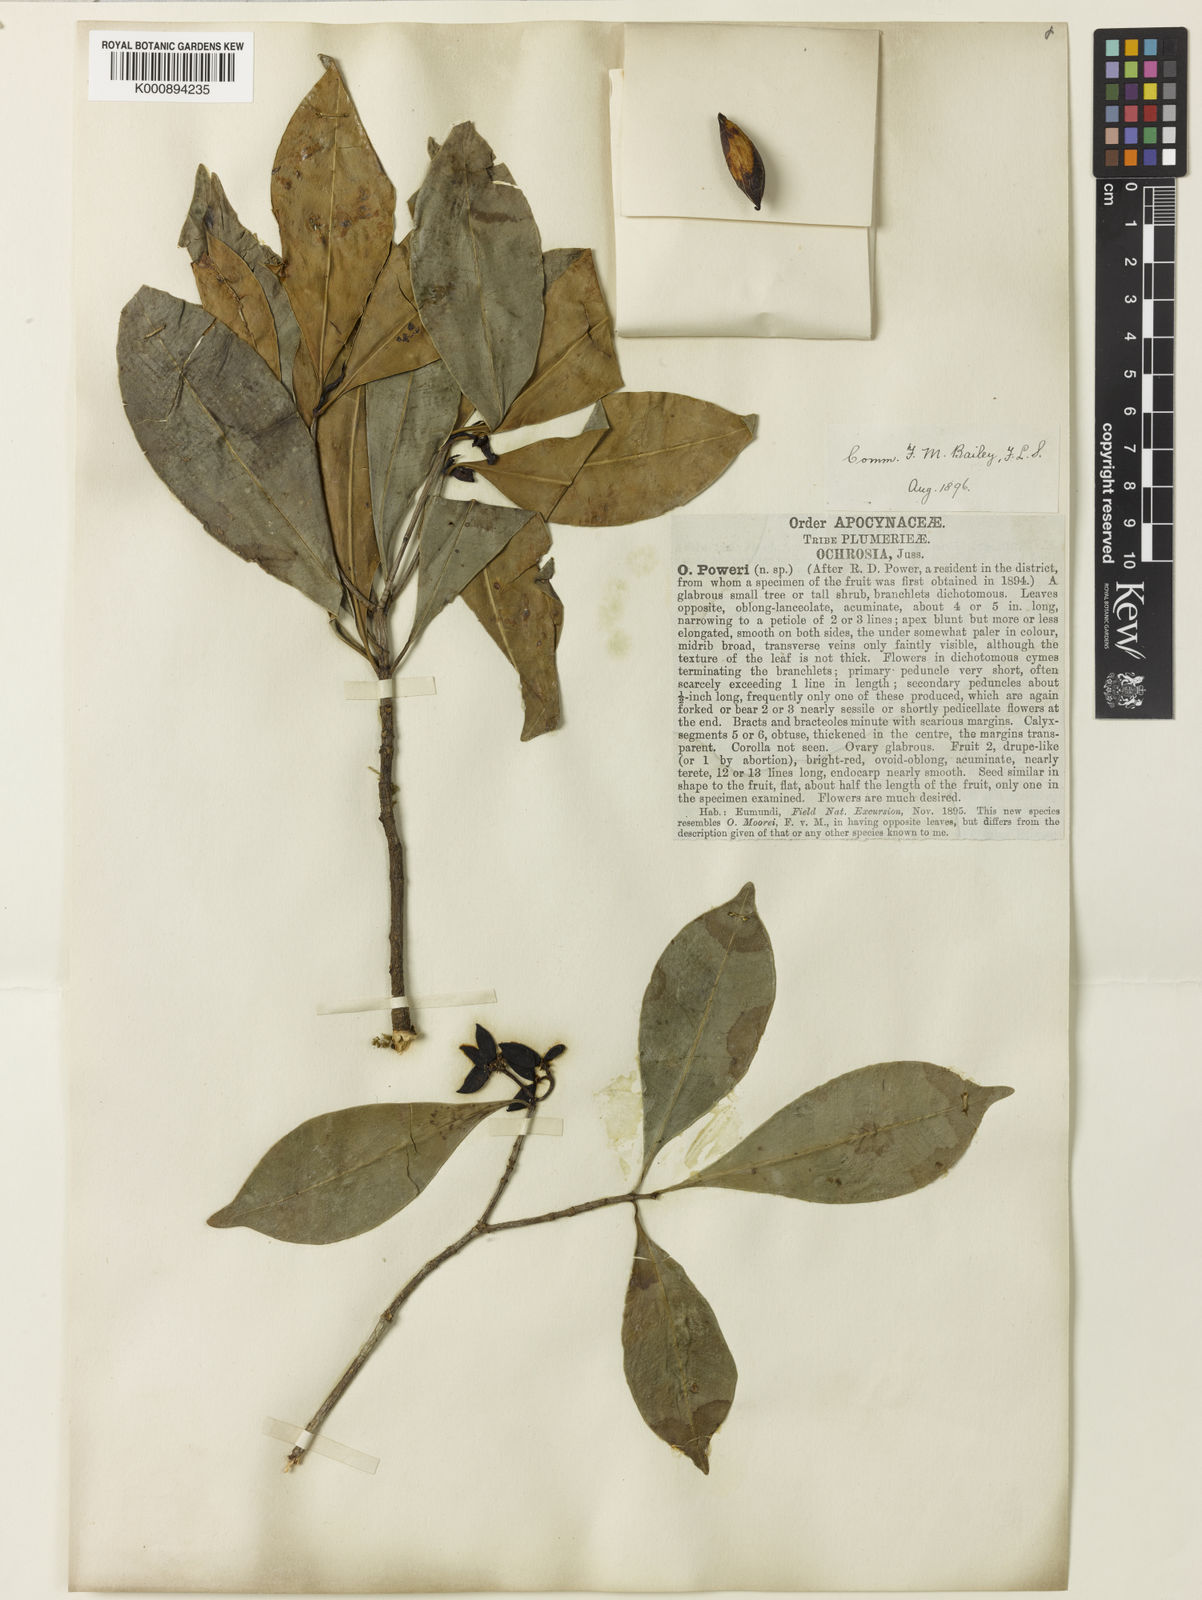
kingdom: Plantae
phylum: Tracheophyta
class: Magnoliopsida
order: Gentianales
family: Apocynaceae
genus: Ochrosia
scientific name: Ochrosia poweri
